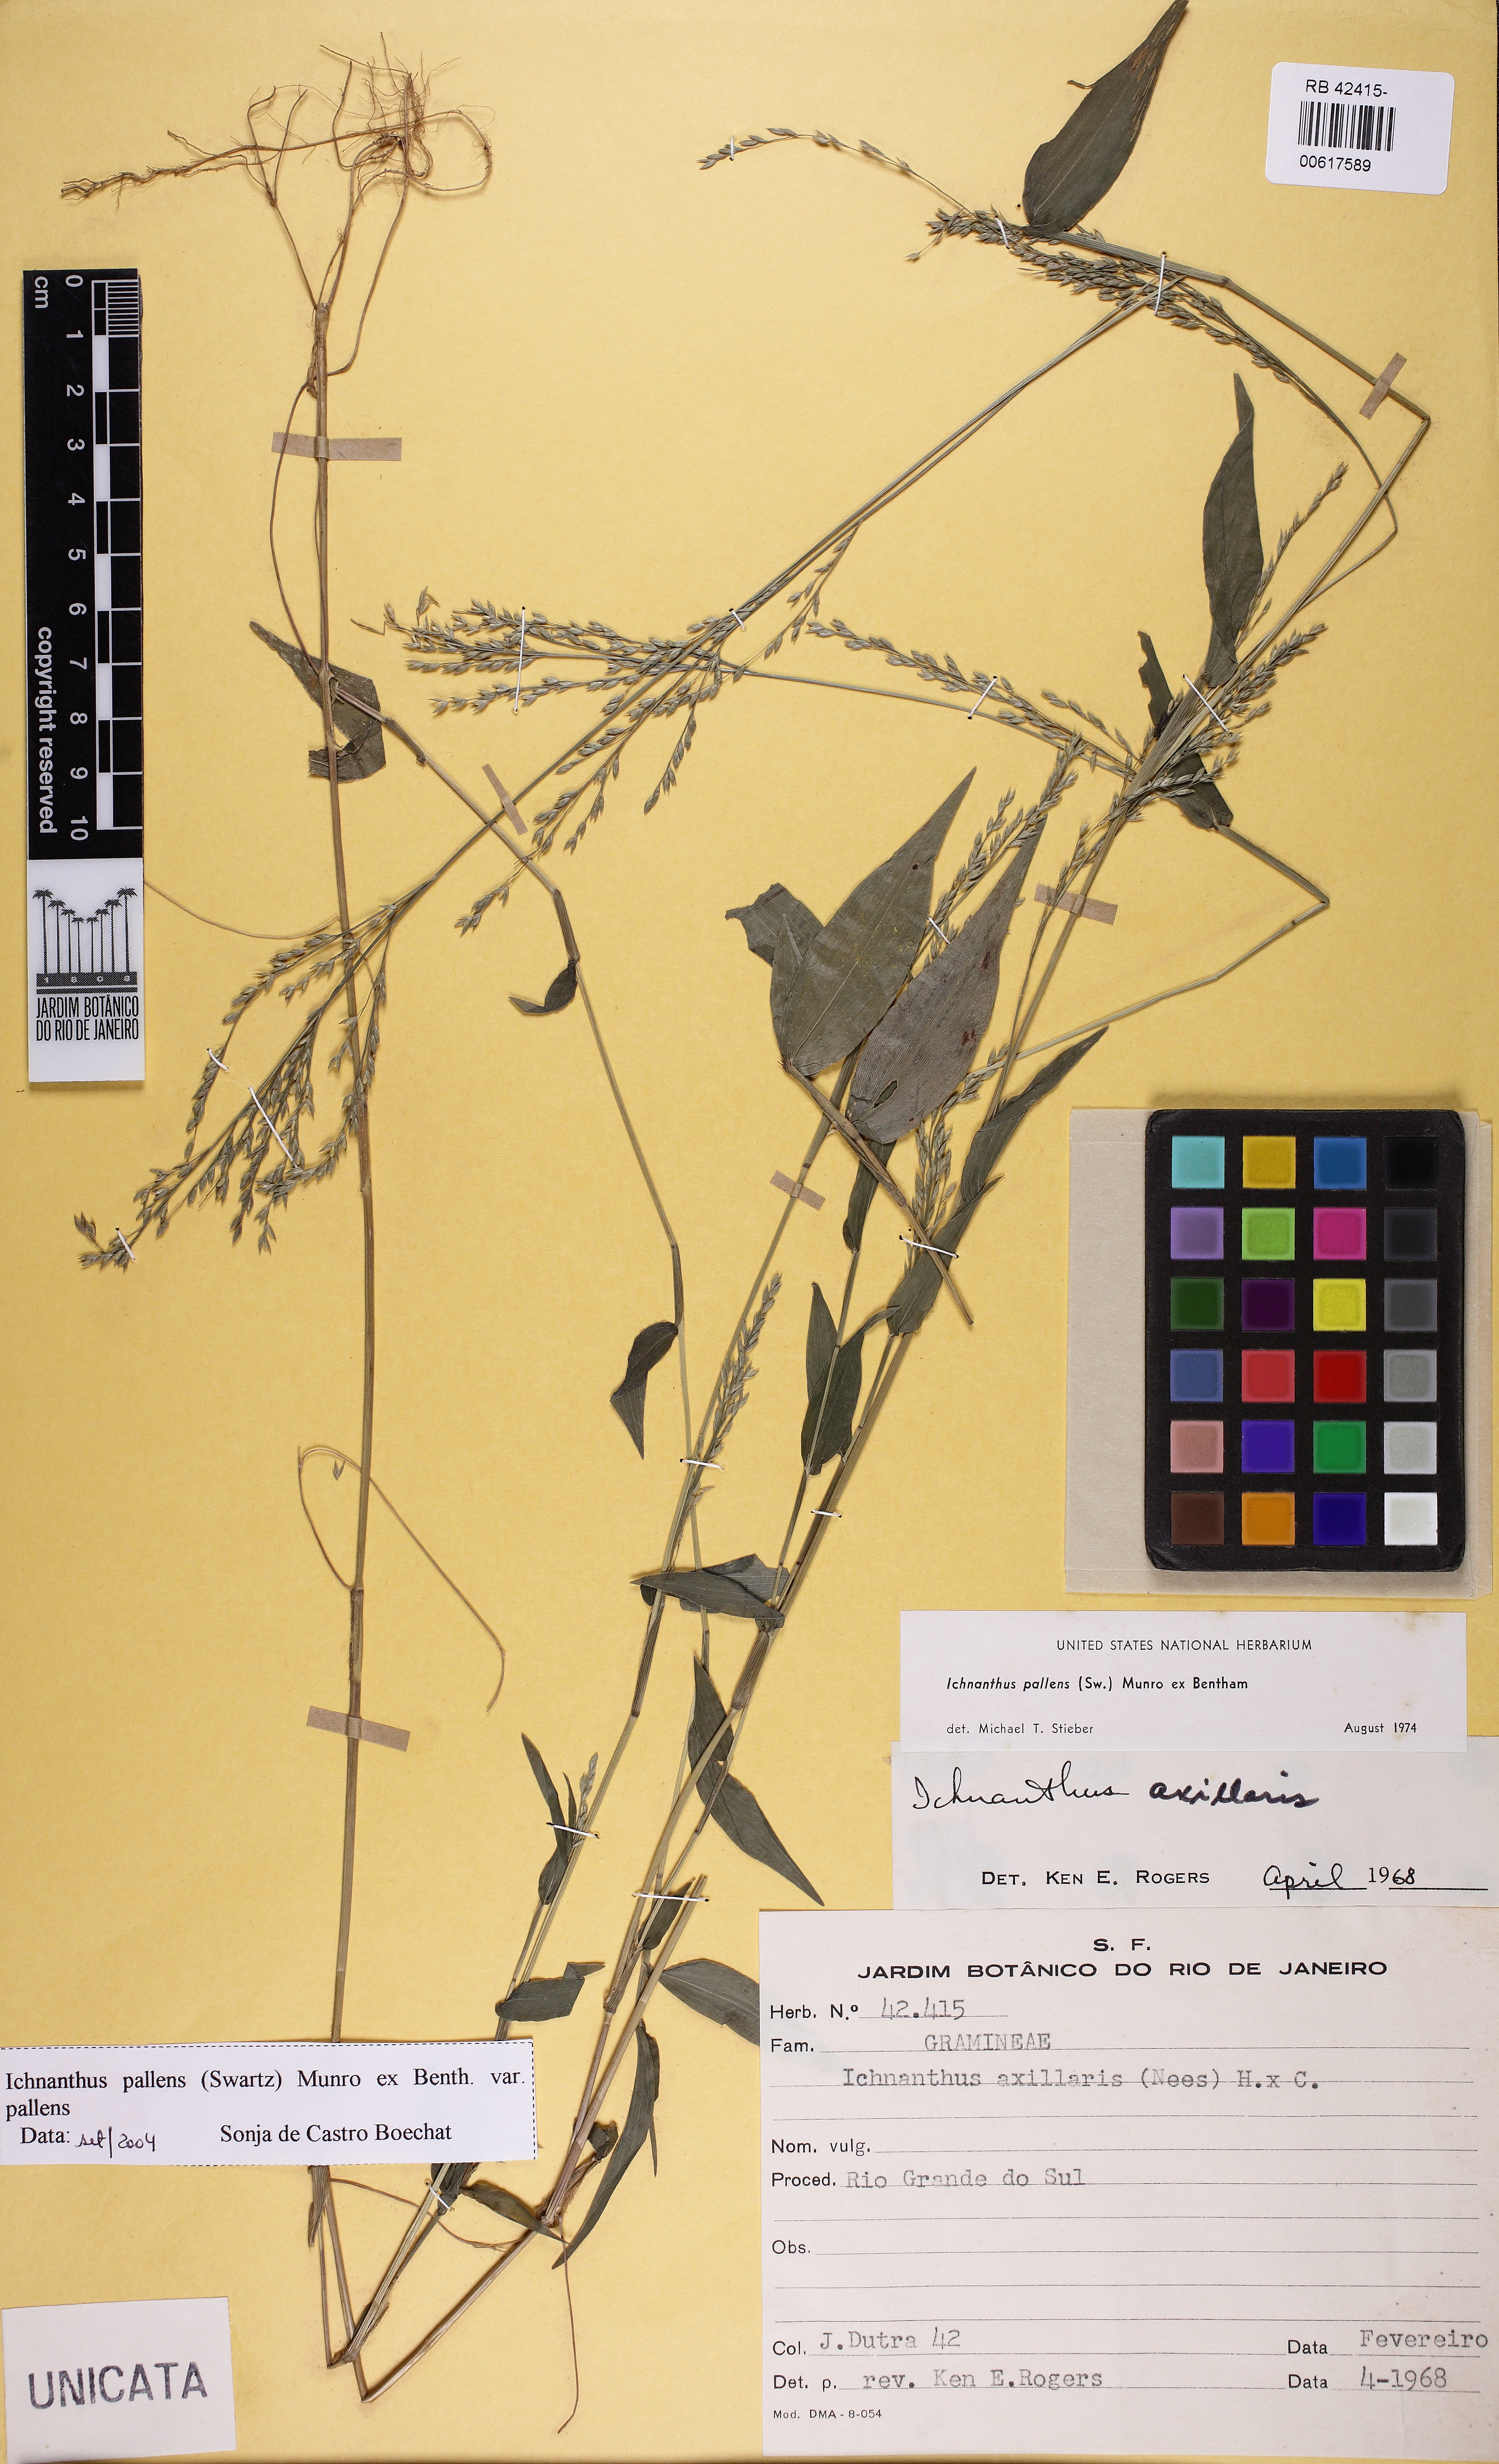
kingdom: Plantae
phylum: Tracheophyta
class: Liliopsida
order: Poales
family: Poaceae
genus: Ichnanthus
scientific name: Ichnanthus pallens
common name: Water grass
